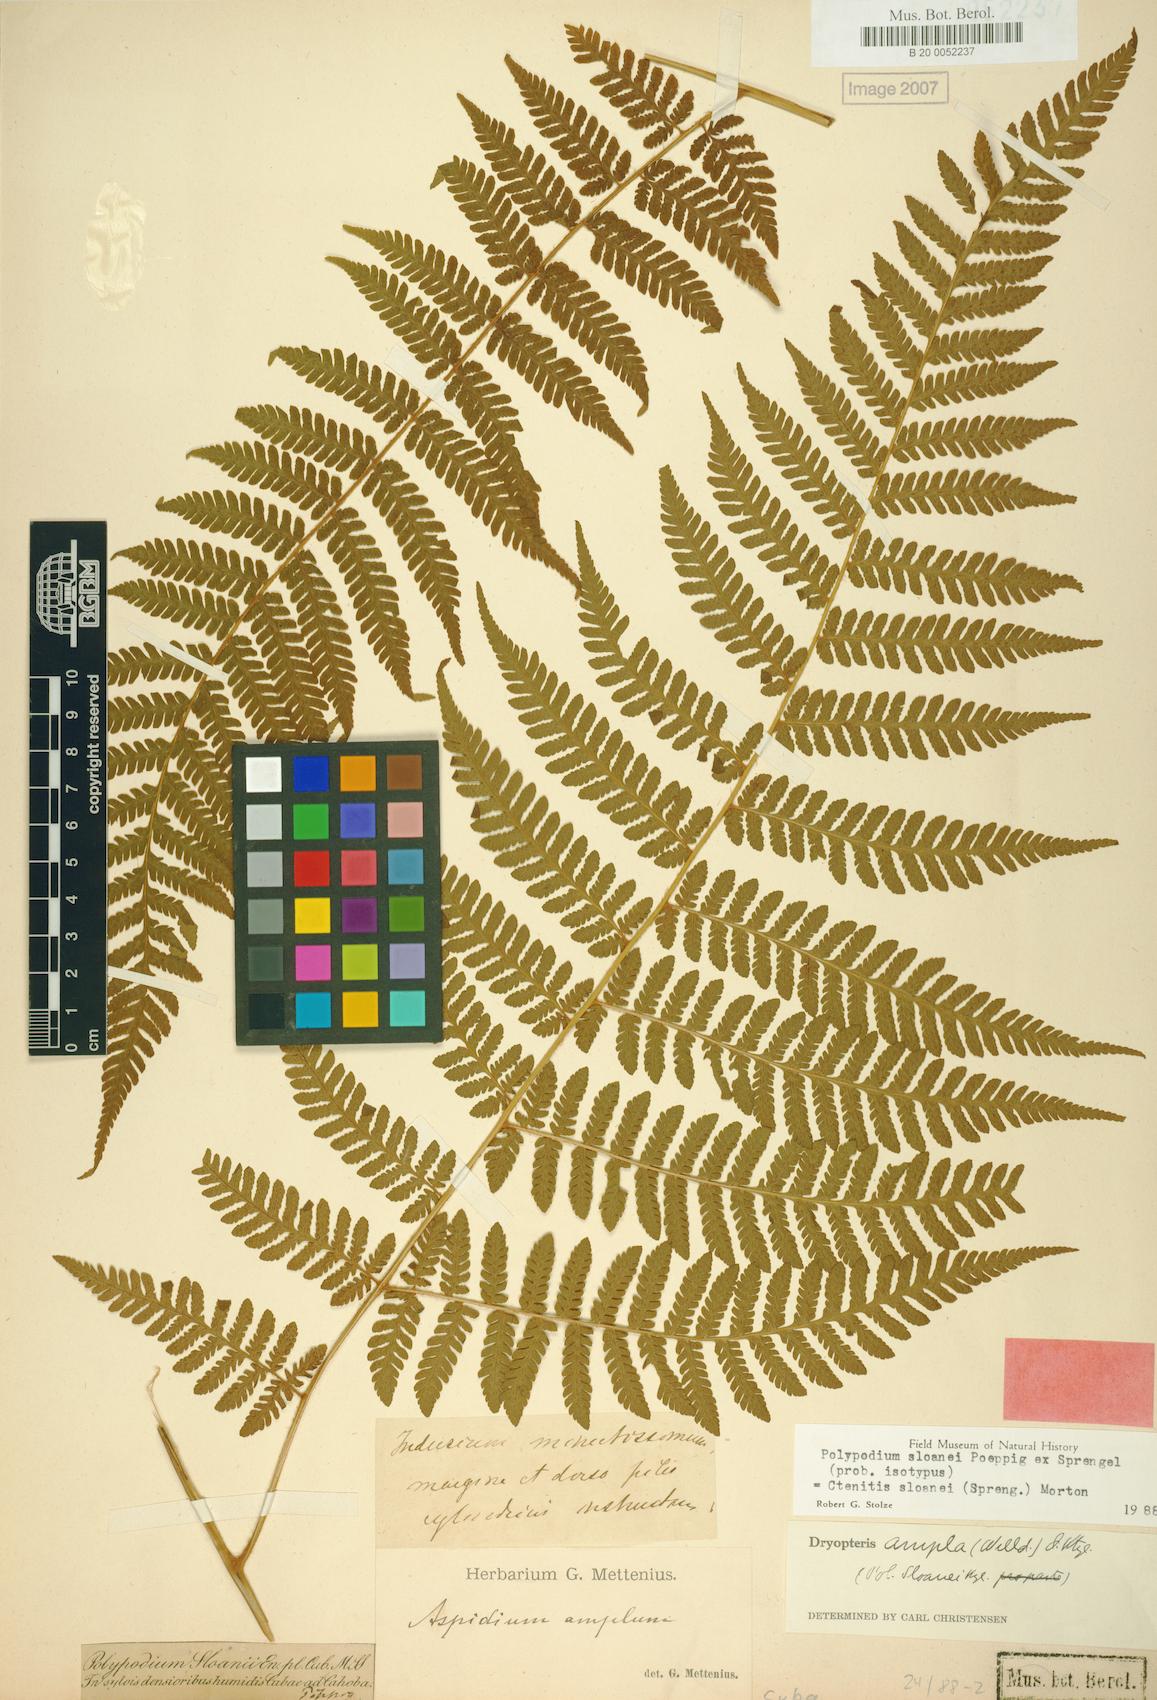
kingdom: Plantae
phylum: Tracheophyta
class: Polypodiopsida
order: Polypodiales
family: Dryopteridaceae
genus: Ctenitis
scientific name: Ctenitis sloanei
